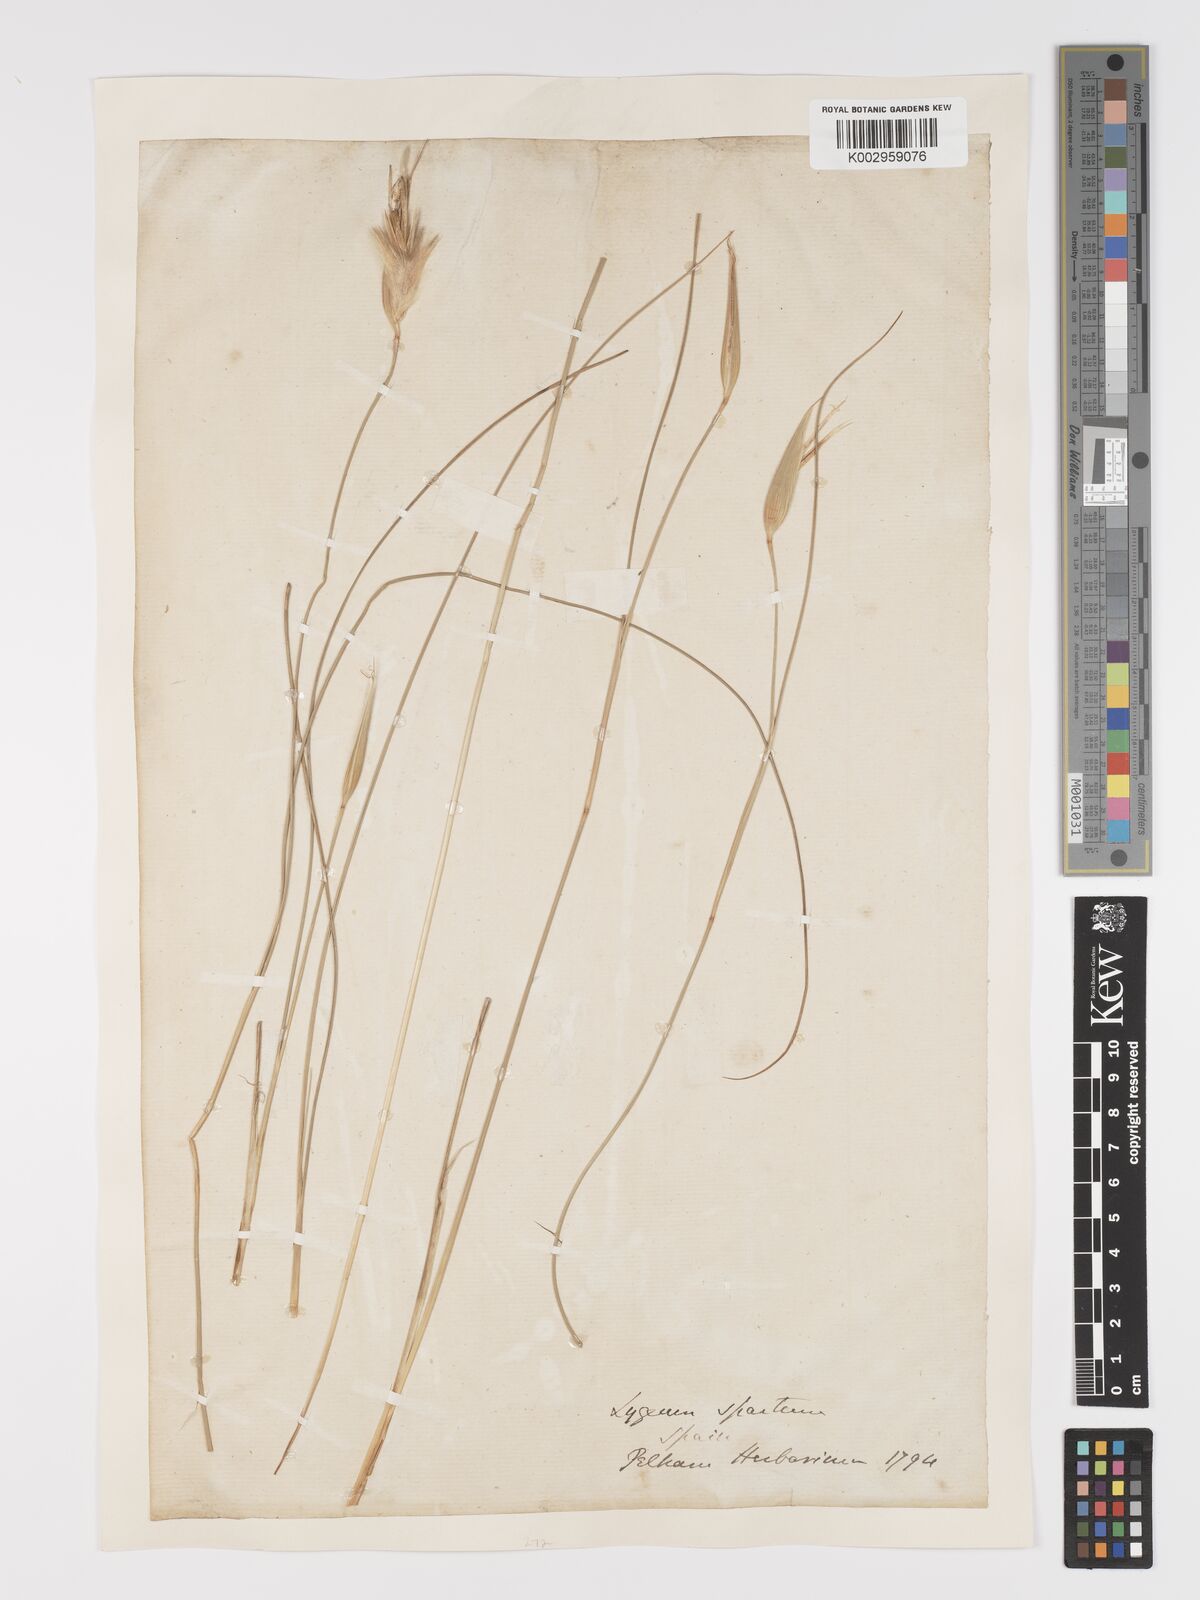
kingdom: Plantae
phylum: Tracheophyta
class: Liliopsida
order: Poales
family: Poaceae
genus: Lygeum
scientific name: Lygeum spartum
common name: Albardine
